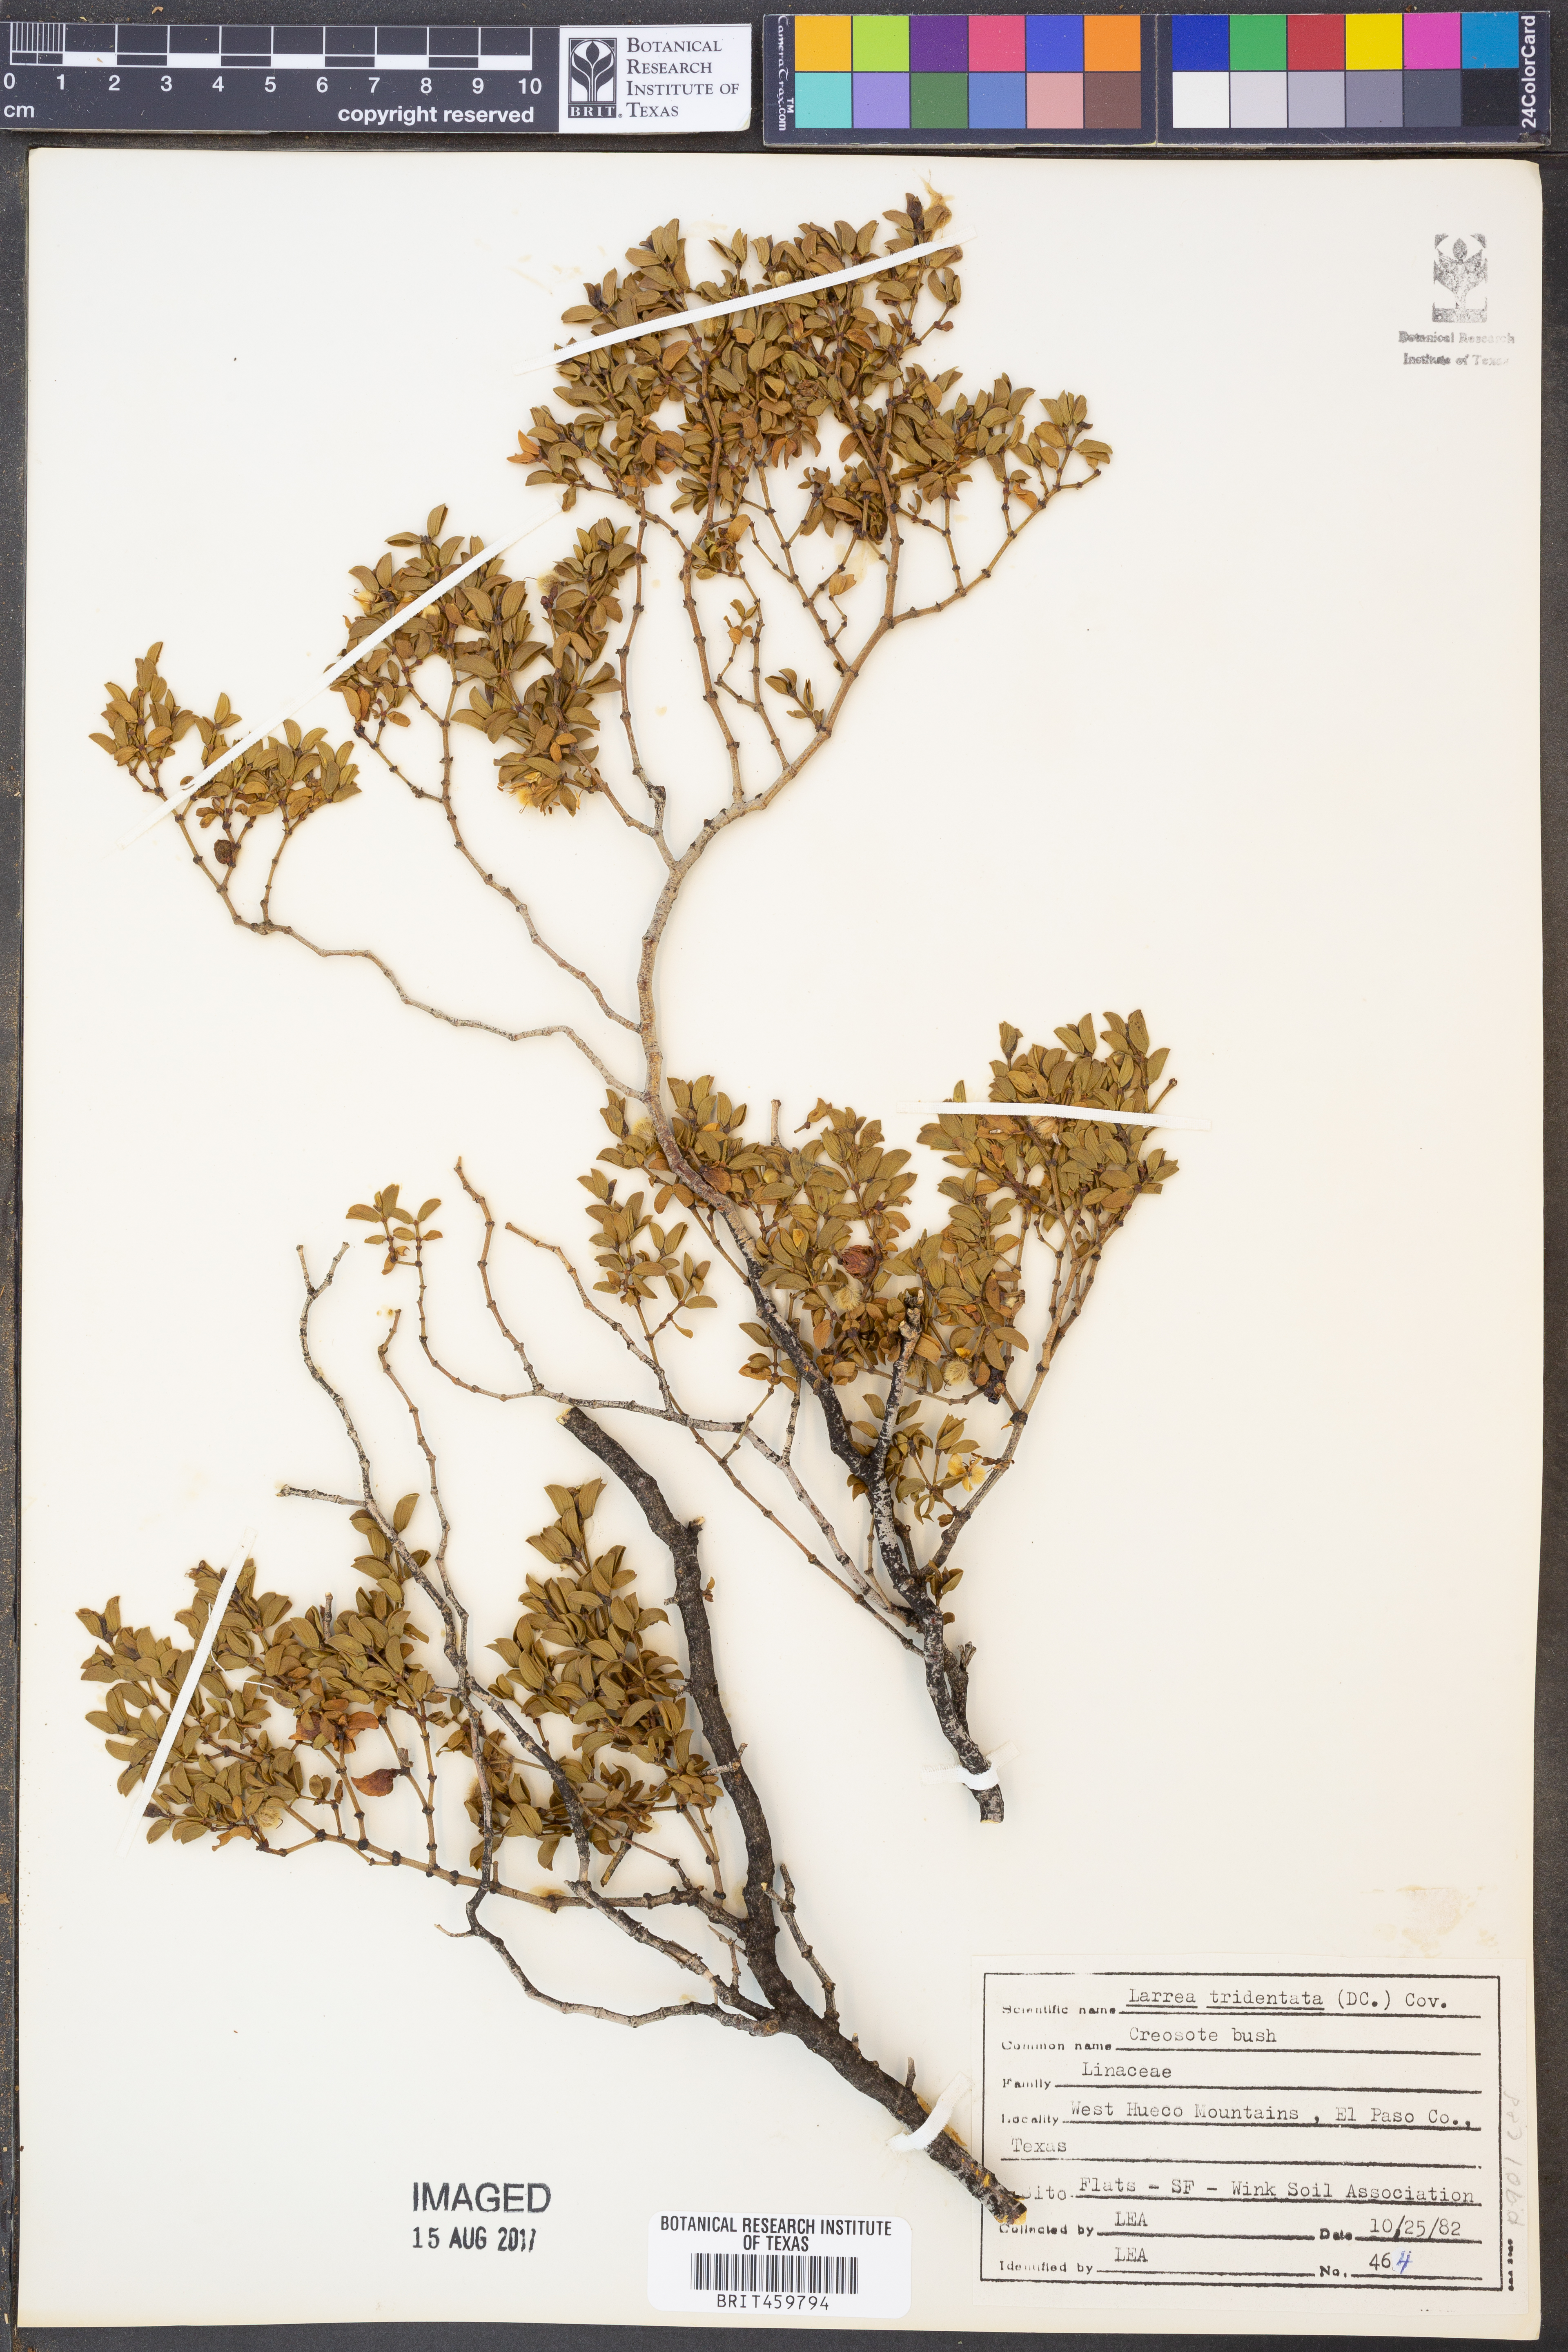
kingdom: Plantae
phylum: Tracheophyta
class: Magnoliopsida
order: Zygophyllales
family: Zygophyllaceae
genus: Larrea
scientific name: Larrea tridentata
